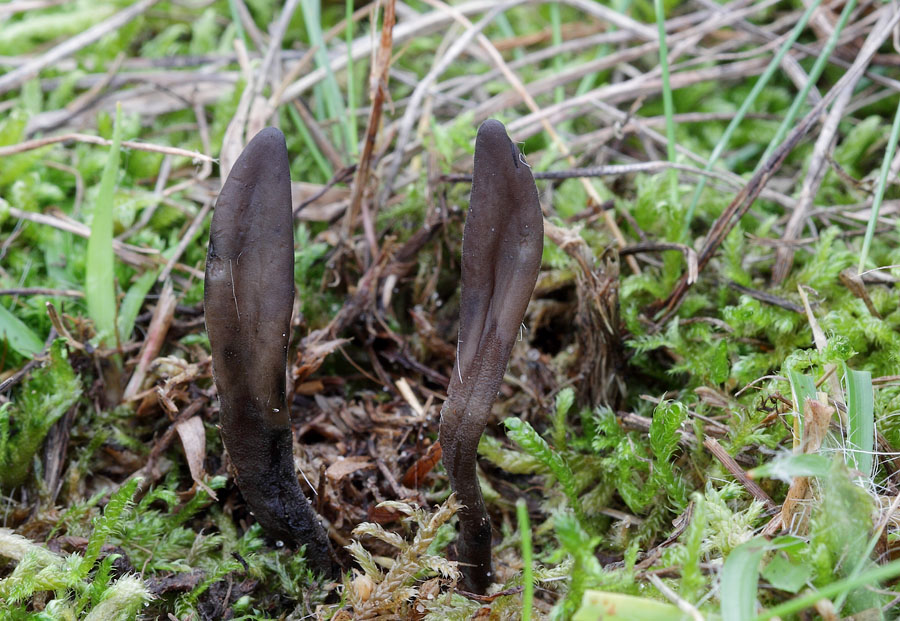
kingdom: Fungi
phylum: Ascomycota
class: Geoglossomycetes
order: Geoglossales
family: Geoglossaceae
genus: Hemileucoglossum
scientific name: Hemileucoglossum elongatum
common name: småsporet jordtunge
